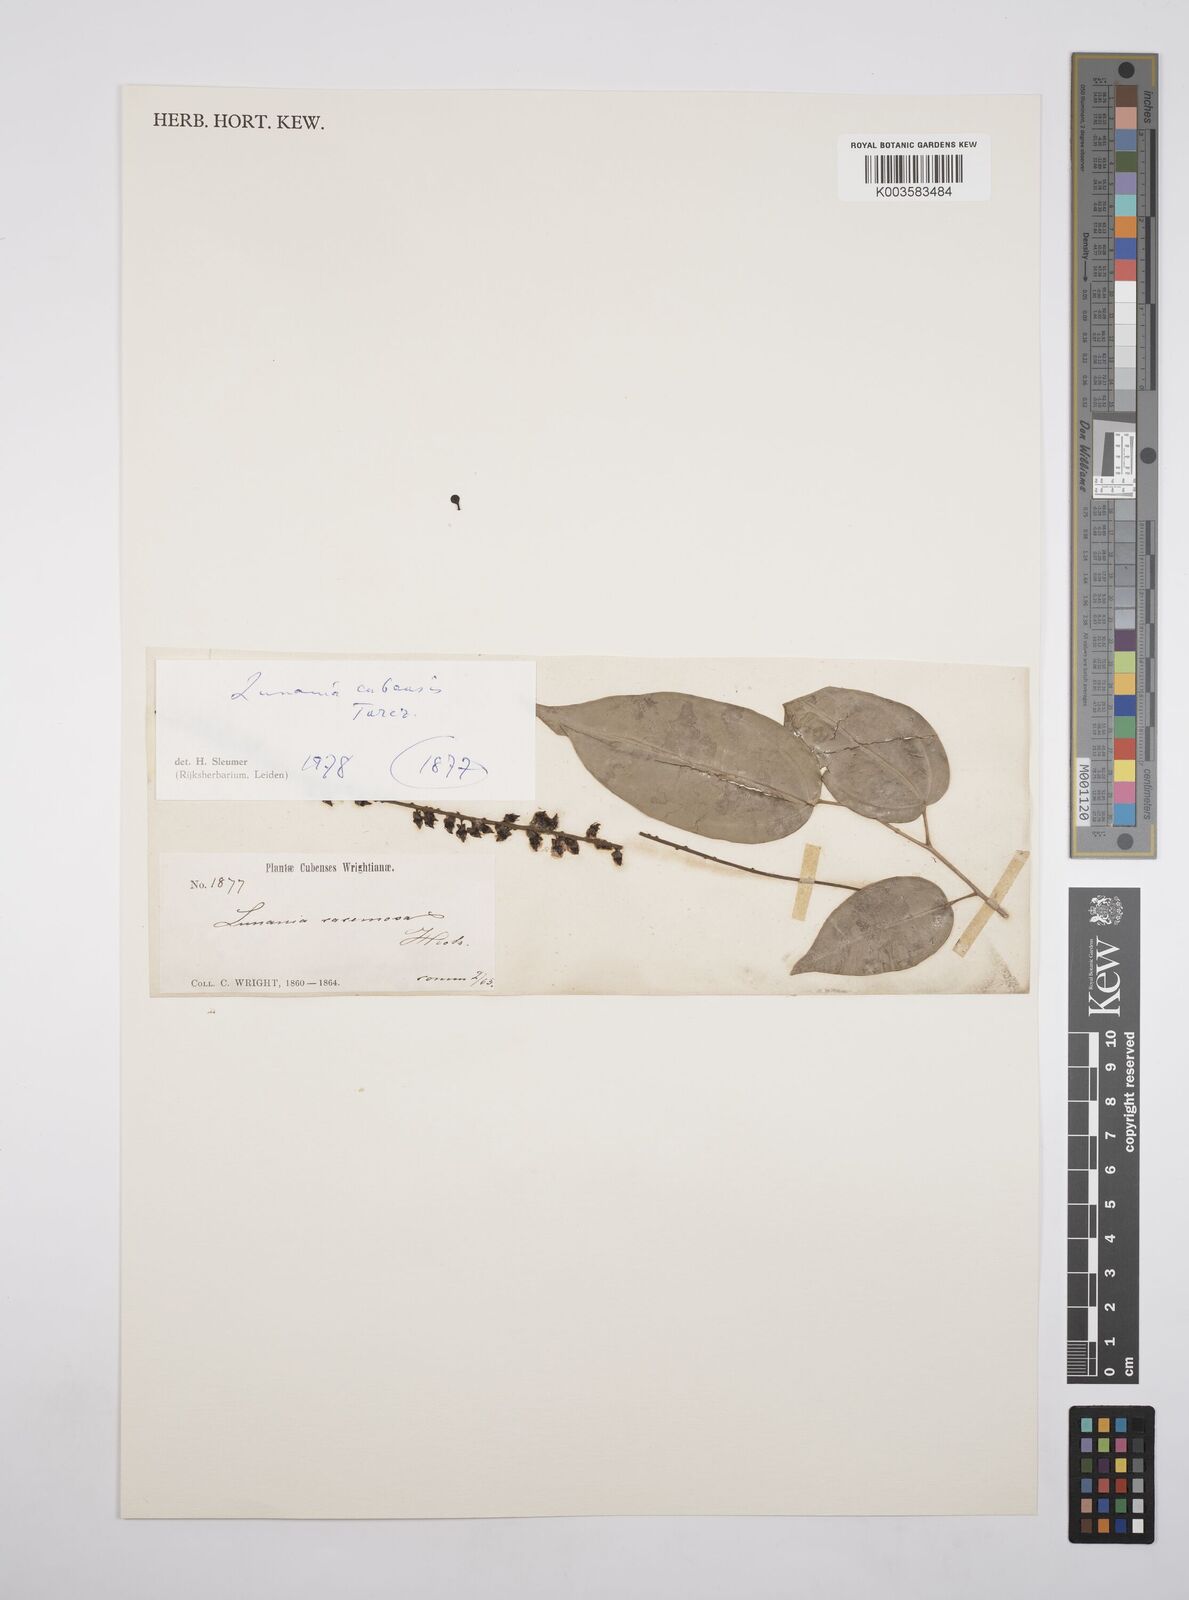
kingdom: Plantae
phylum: Tracheophyta
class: Magnoliopsida
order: Malpighiales
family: Salicaceae
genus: Lunania
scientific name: Lunania cubensis
